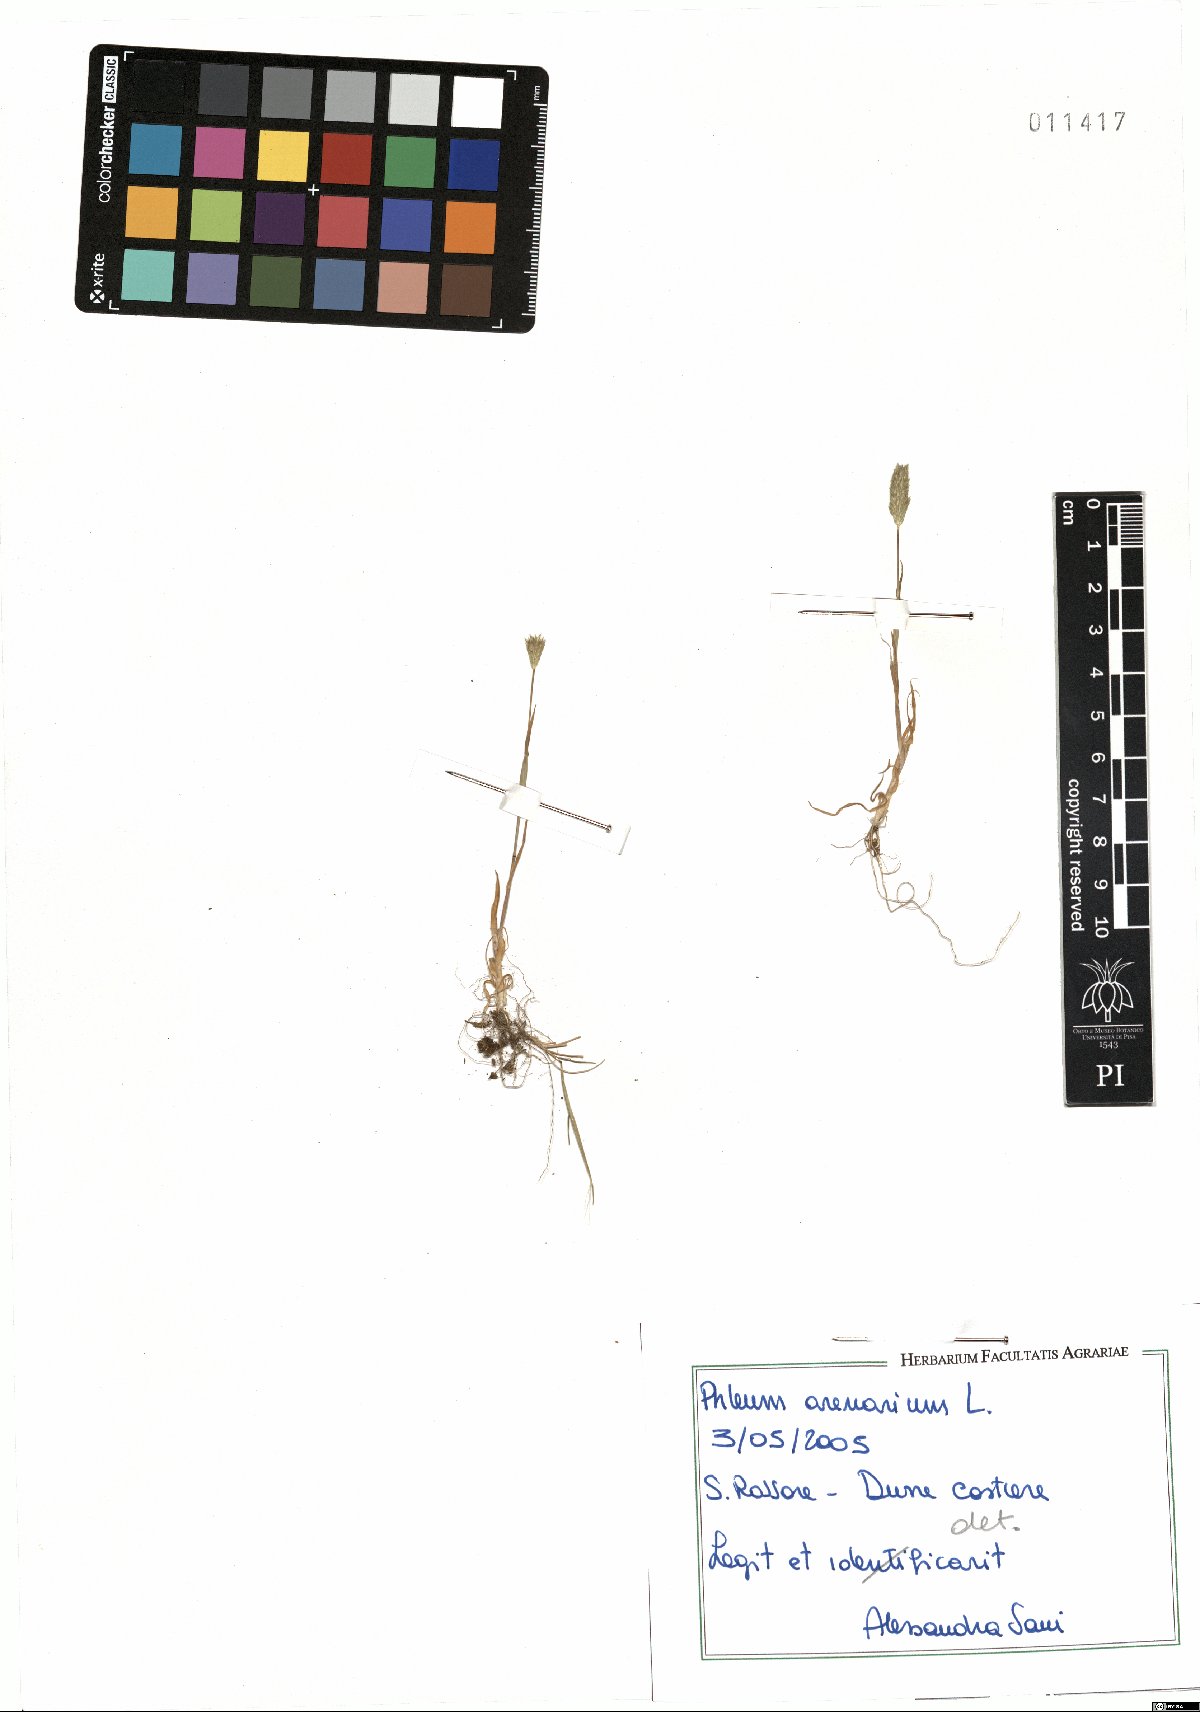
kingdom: Plantae
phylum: Tracheophyta
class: Liliopsida
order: Poales
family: Poaceae
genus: Phleum
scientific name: Phleum arenarium
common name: Sand cat's-tail
